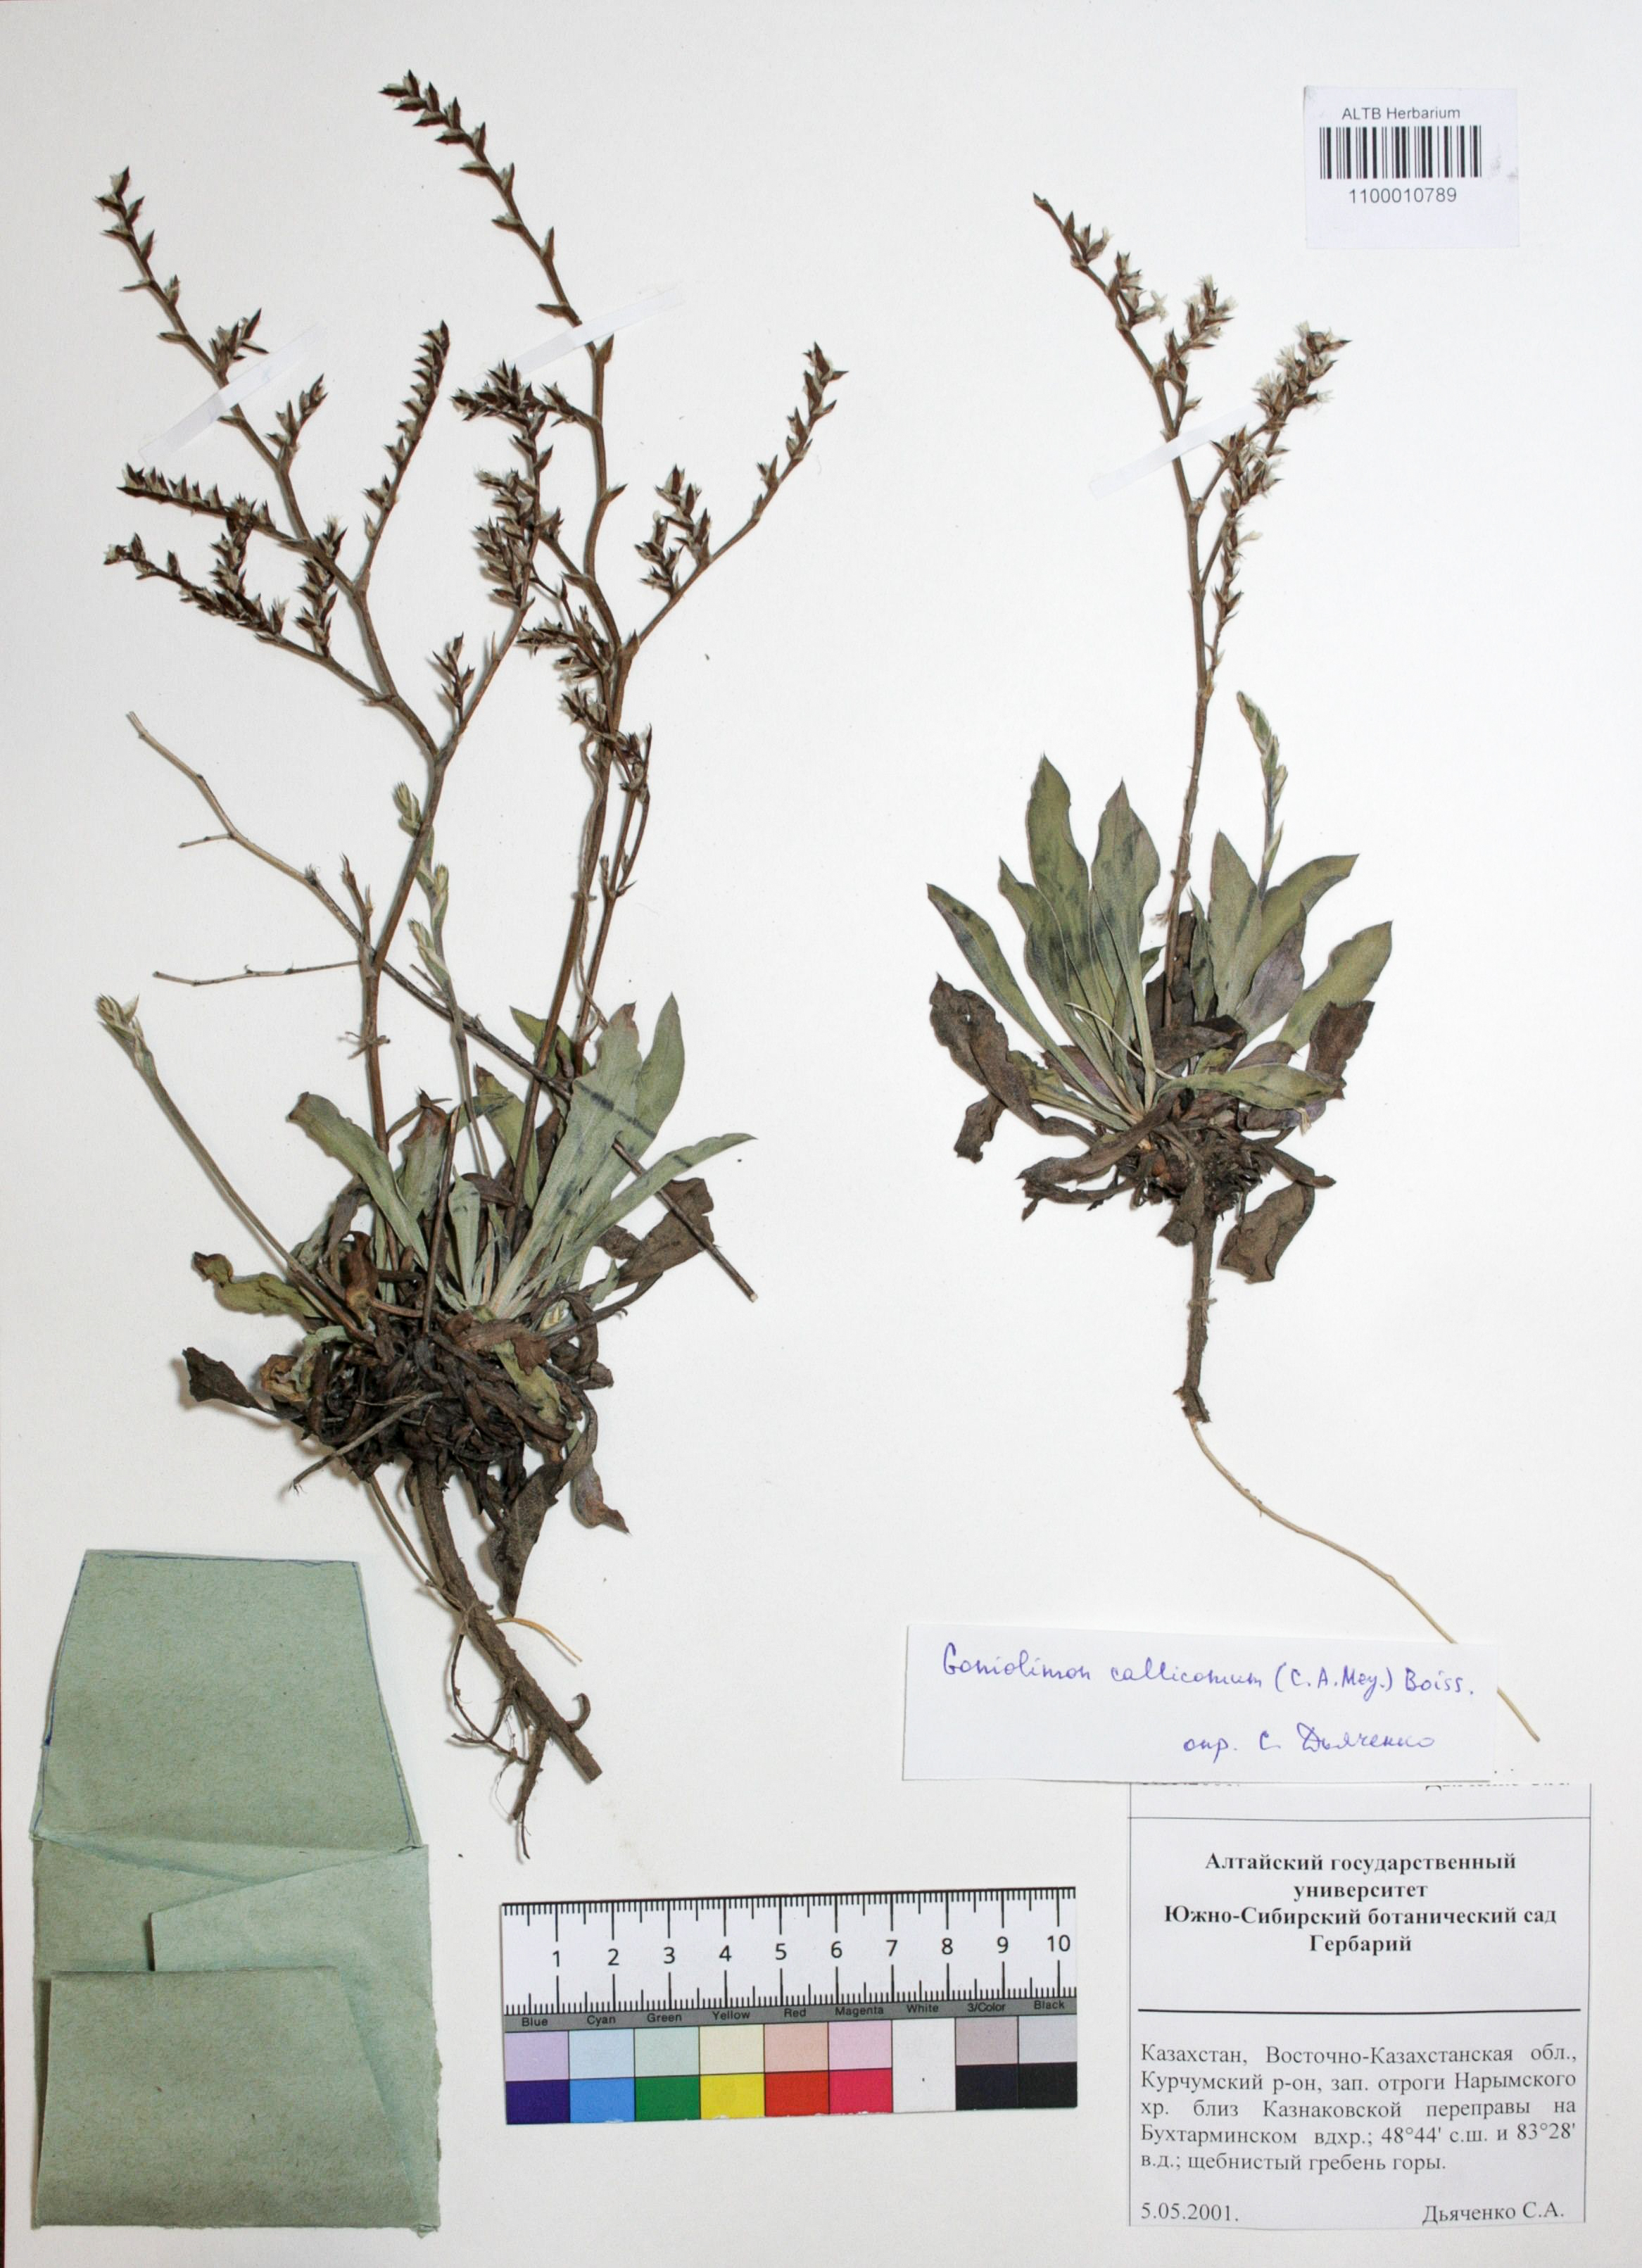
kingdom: Plantae
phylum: Tracheophyta
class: Magnoliopsida
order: Caryophyllales
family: Plumbaginaceae
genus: Goniolimon
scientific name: Goniolimon callicomum
